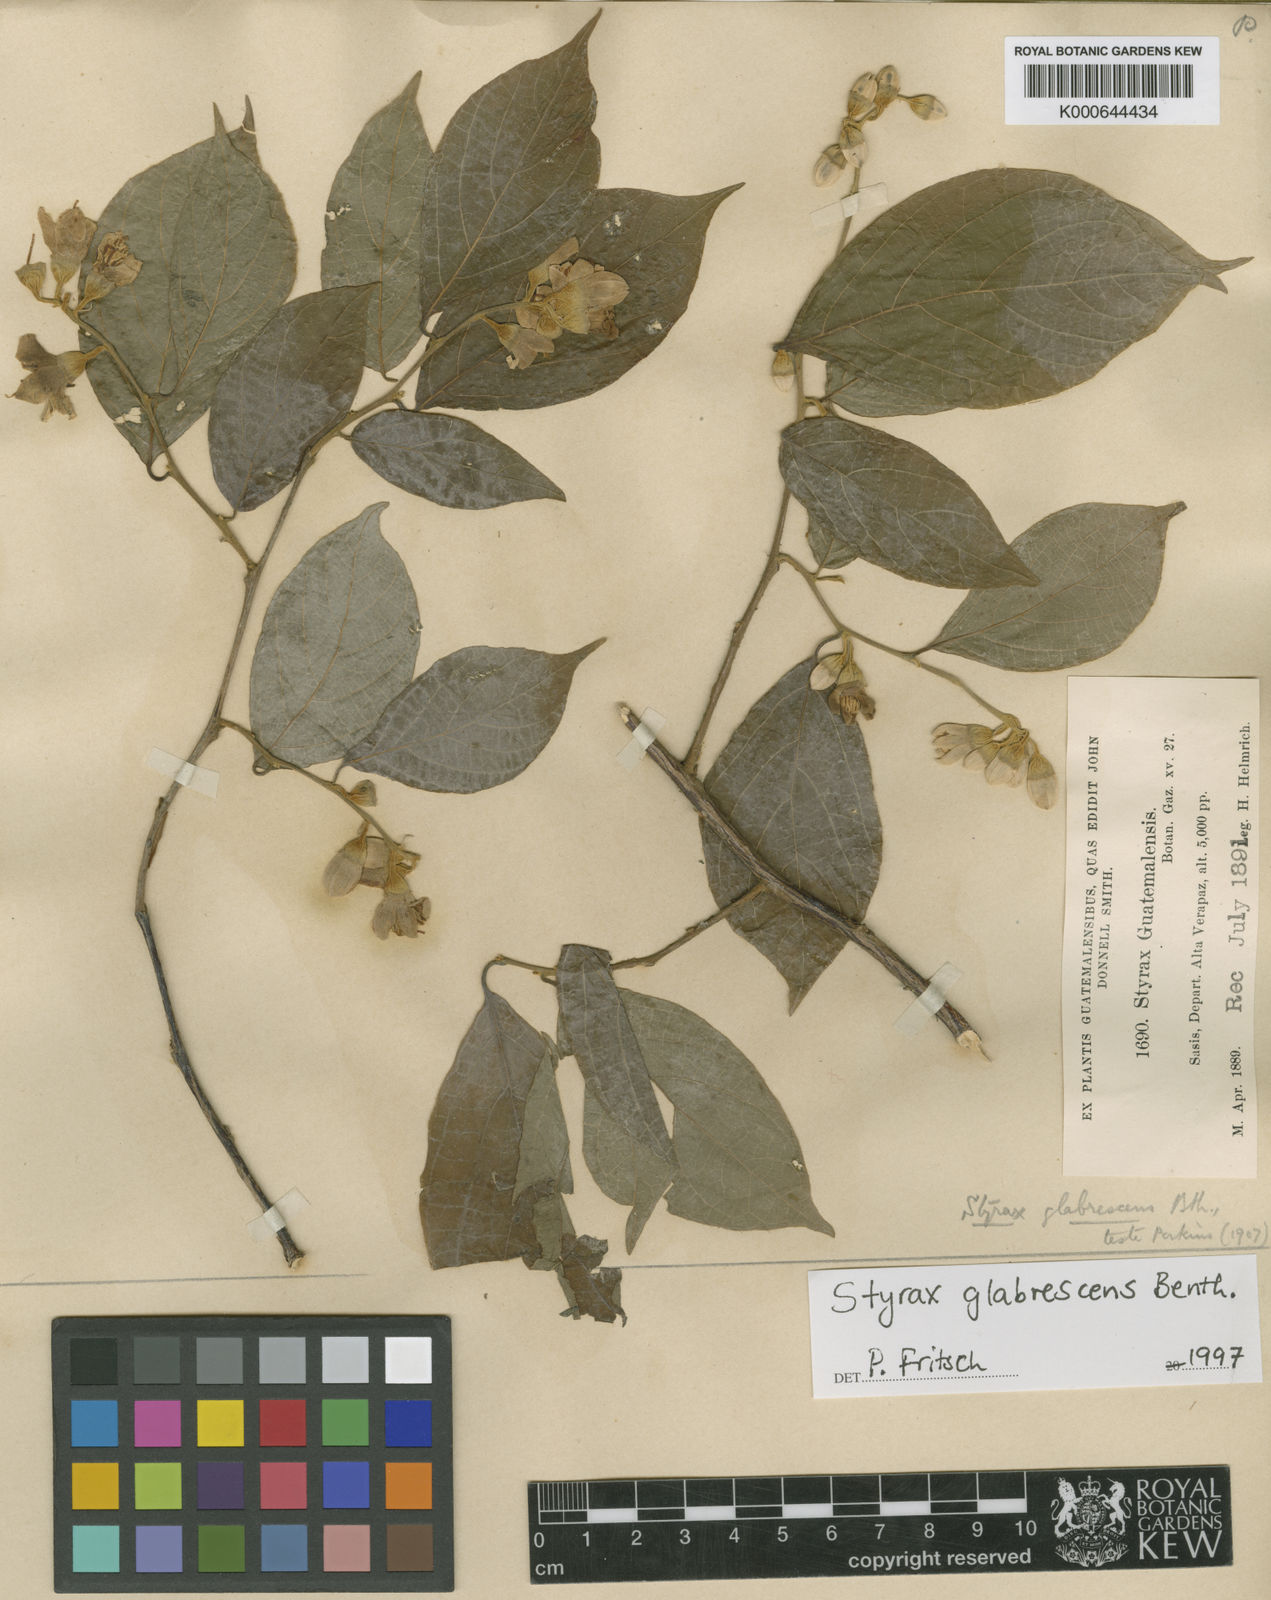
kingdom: Plantae
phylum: Tracheophyta
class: Magnoliopsida
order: Ericales
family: Styracaceae
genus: Styrax
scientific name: Styrax glabrescens
